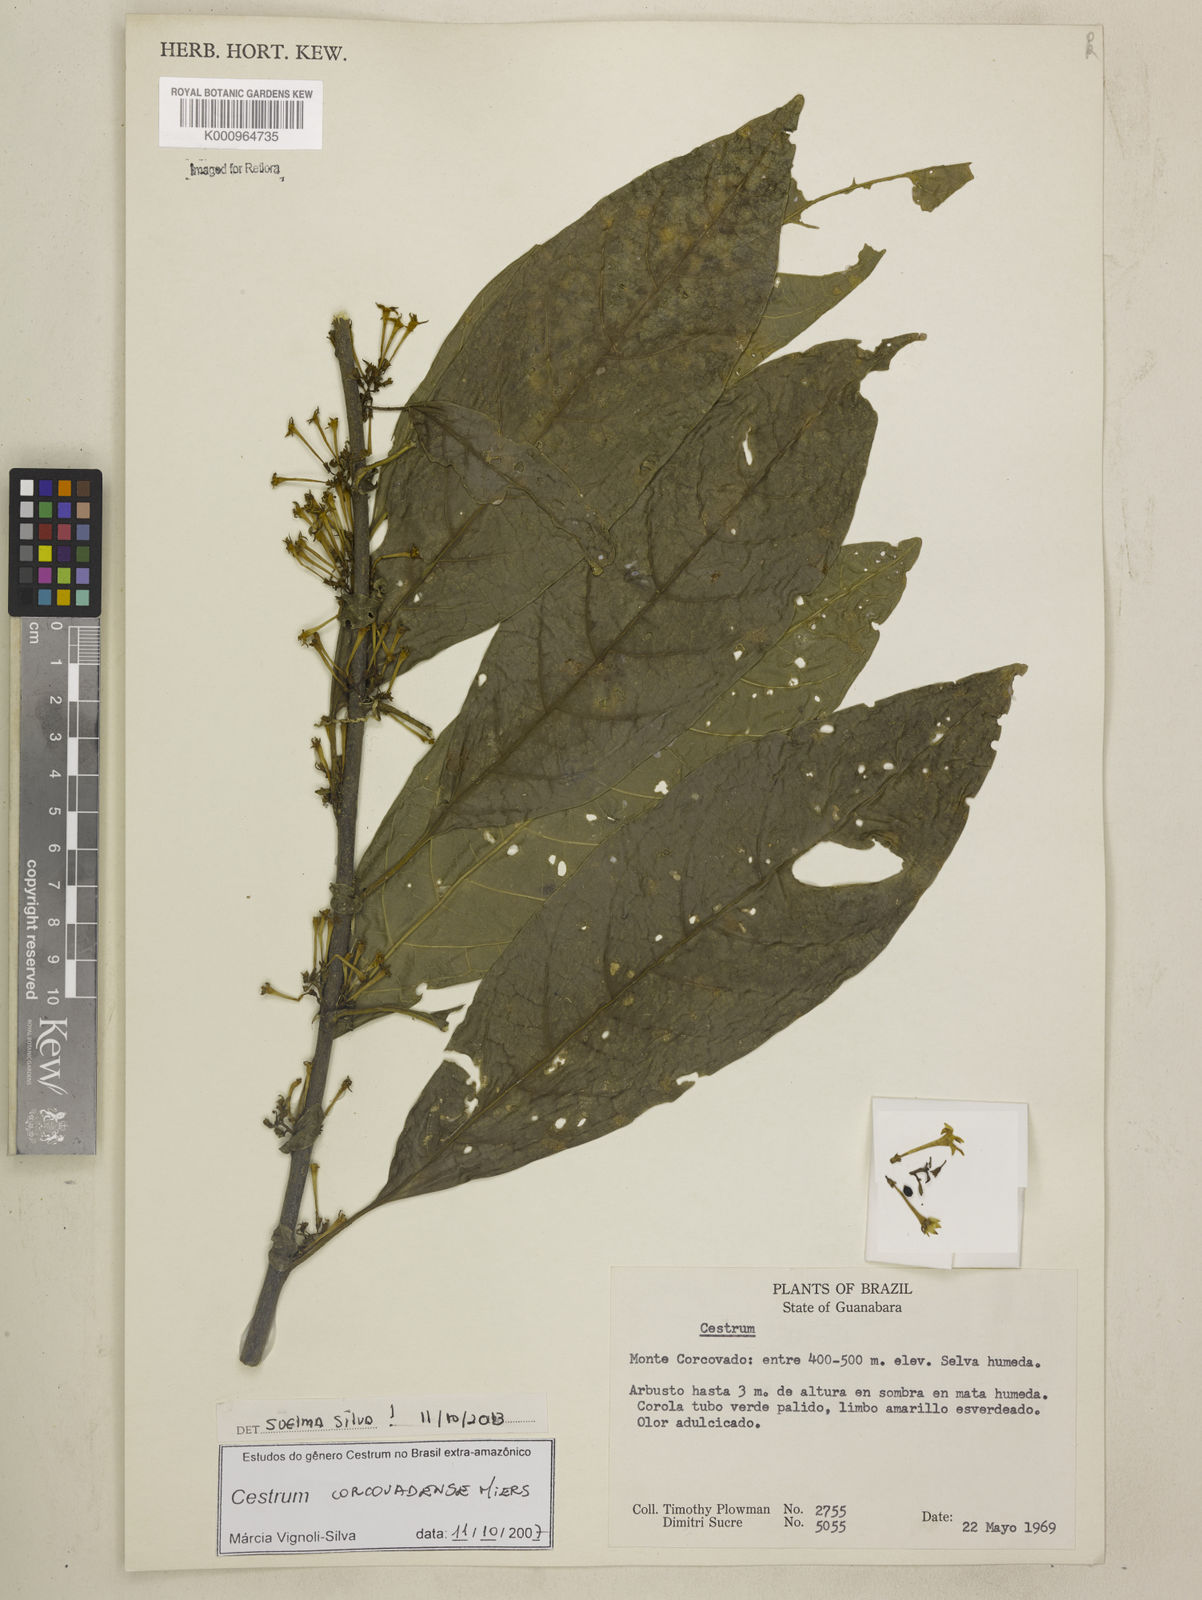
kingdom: Plantae
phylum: Tracheophyta
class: Magnoliopsida
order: Solanales
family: Solanaceae
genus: Cestrum
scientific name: Cestrum corcovadense
